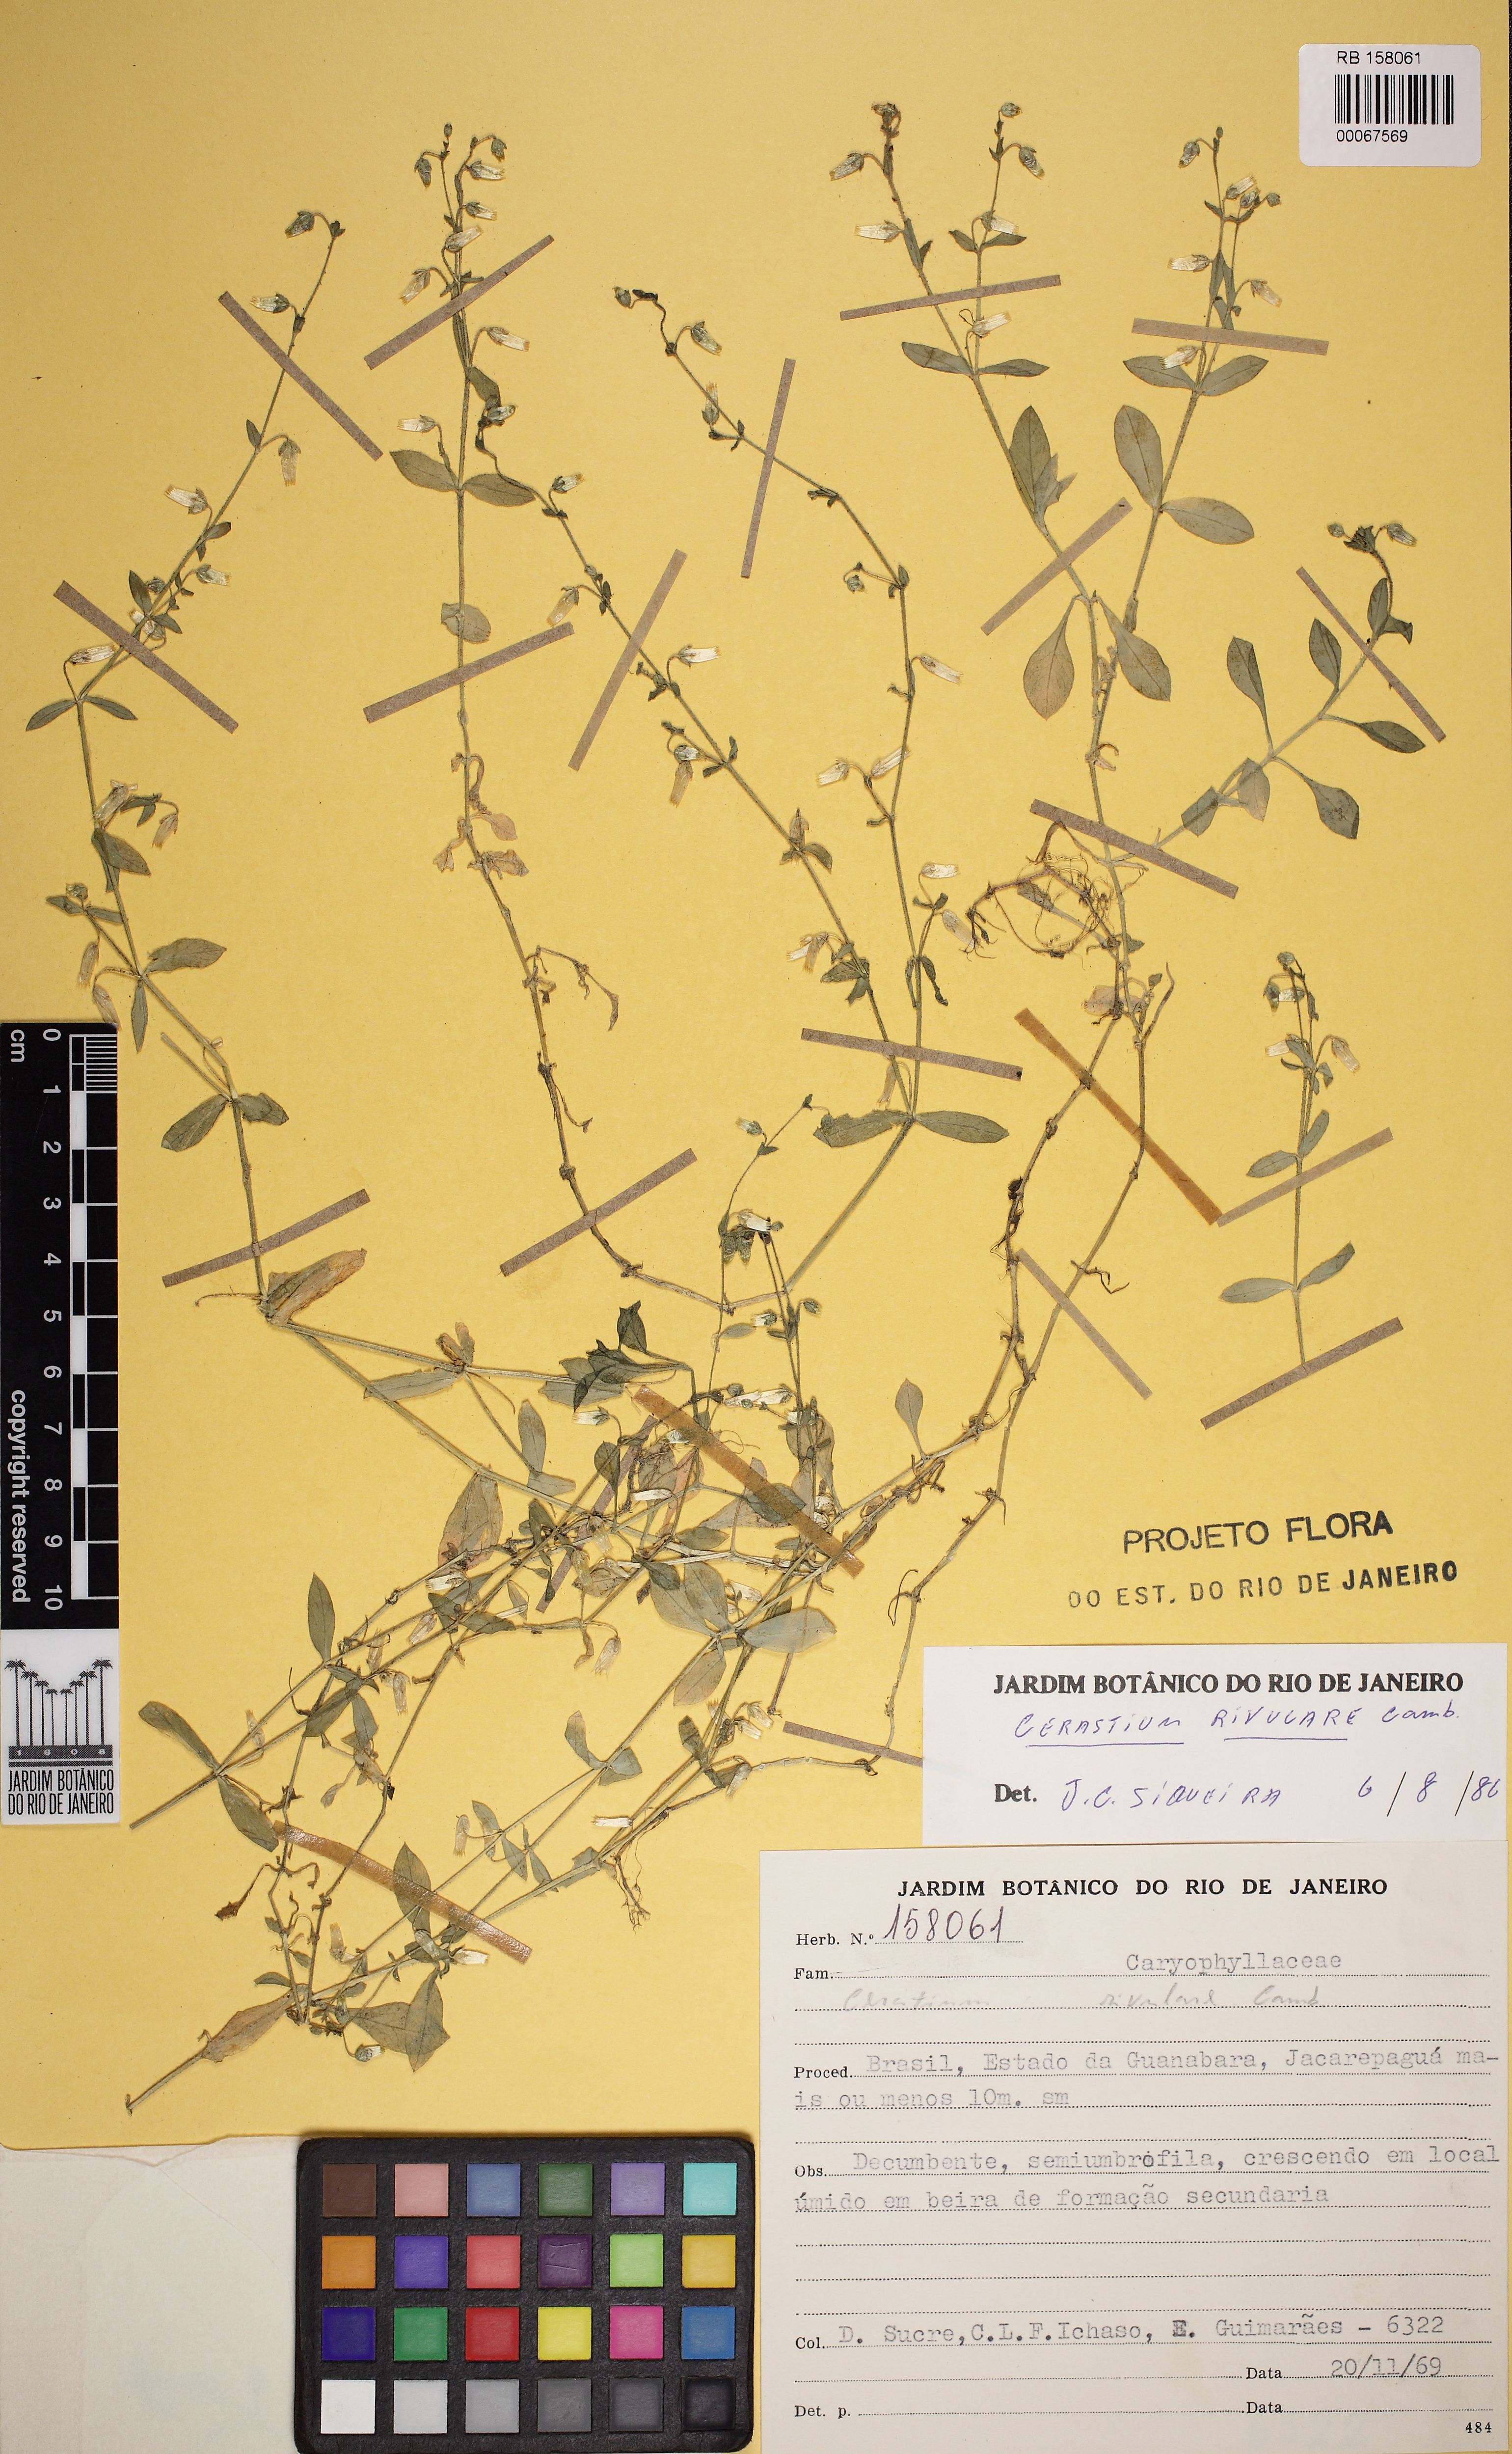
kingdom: Plantae
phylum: Tracheophyta
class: Magnoliopsida
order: Caryophyllales
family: Caryophyllaceae
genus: Cerastium
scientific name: Cerastium rivulare
